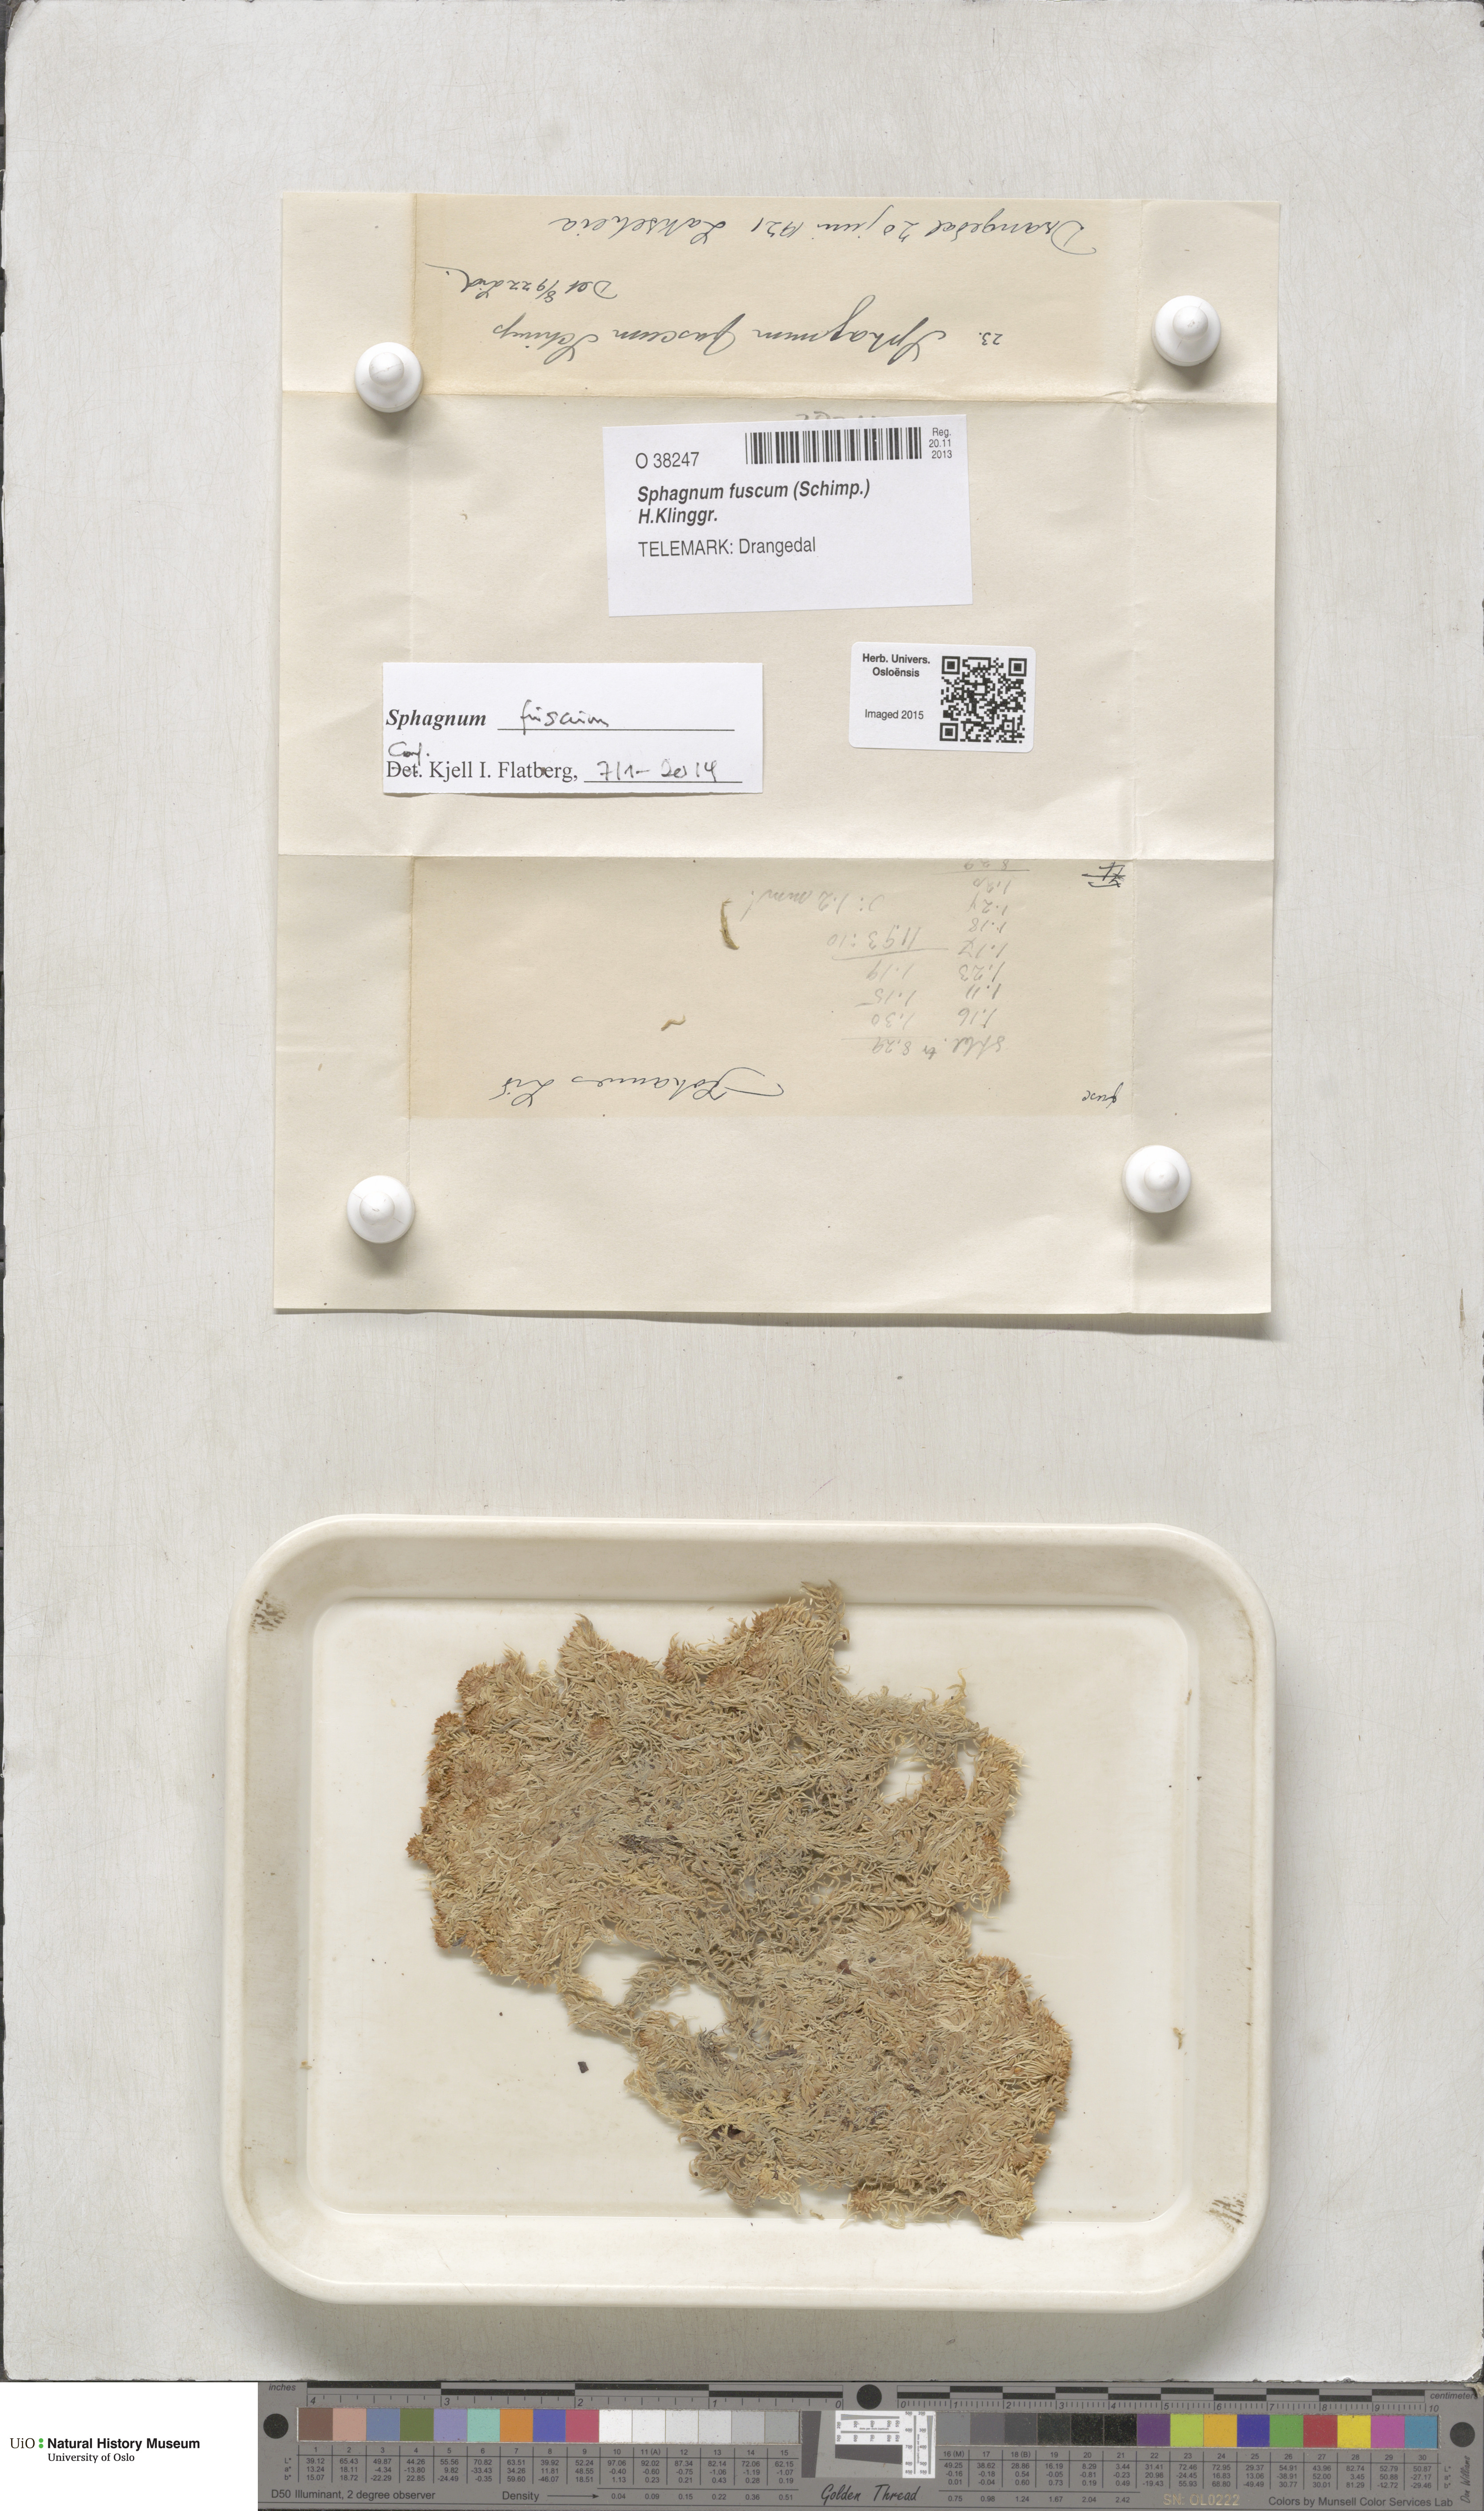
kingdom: Plantae
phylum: Bryophyta
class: Sphagnopsida
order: Sphagnales
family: Sphagnaceae
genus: Sphagnum
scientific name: Sphagnum fuscum
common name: Brown peat moss
